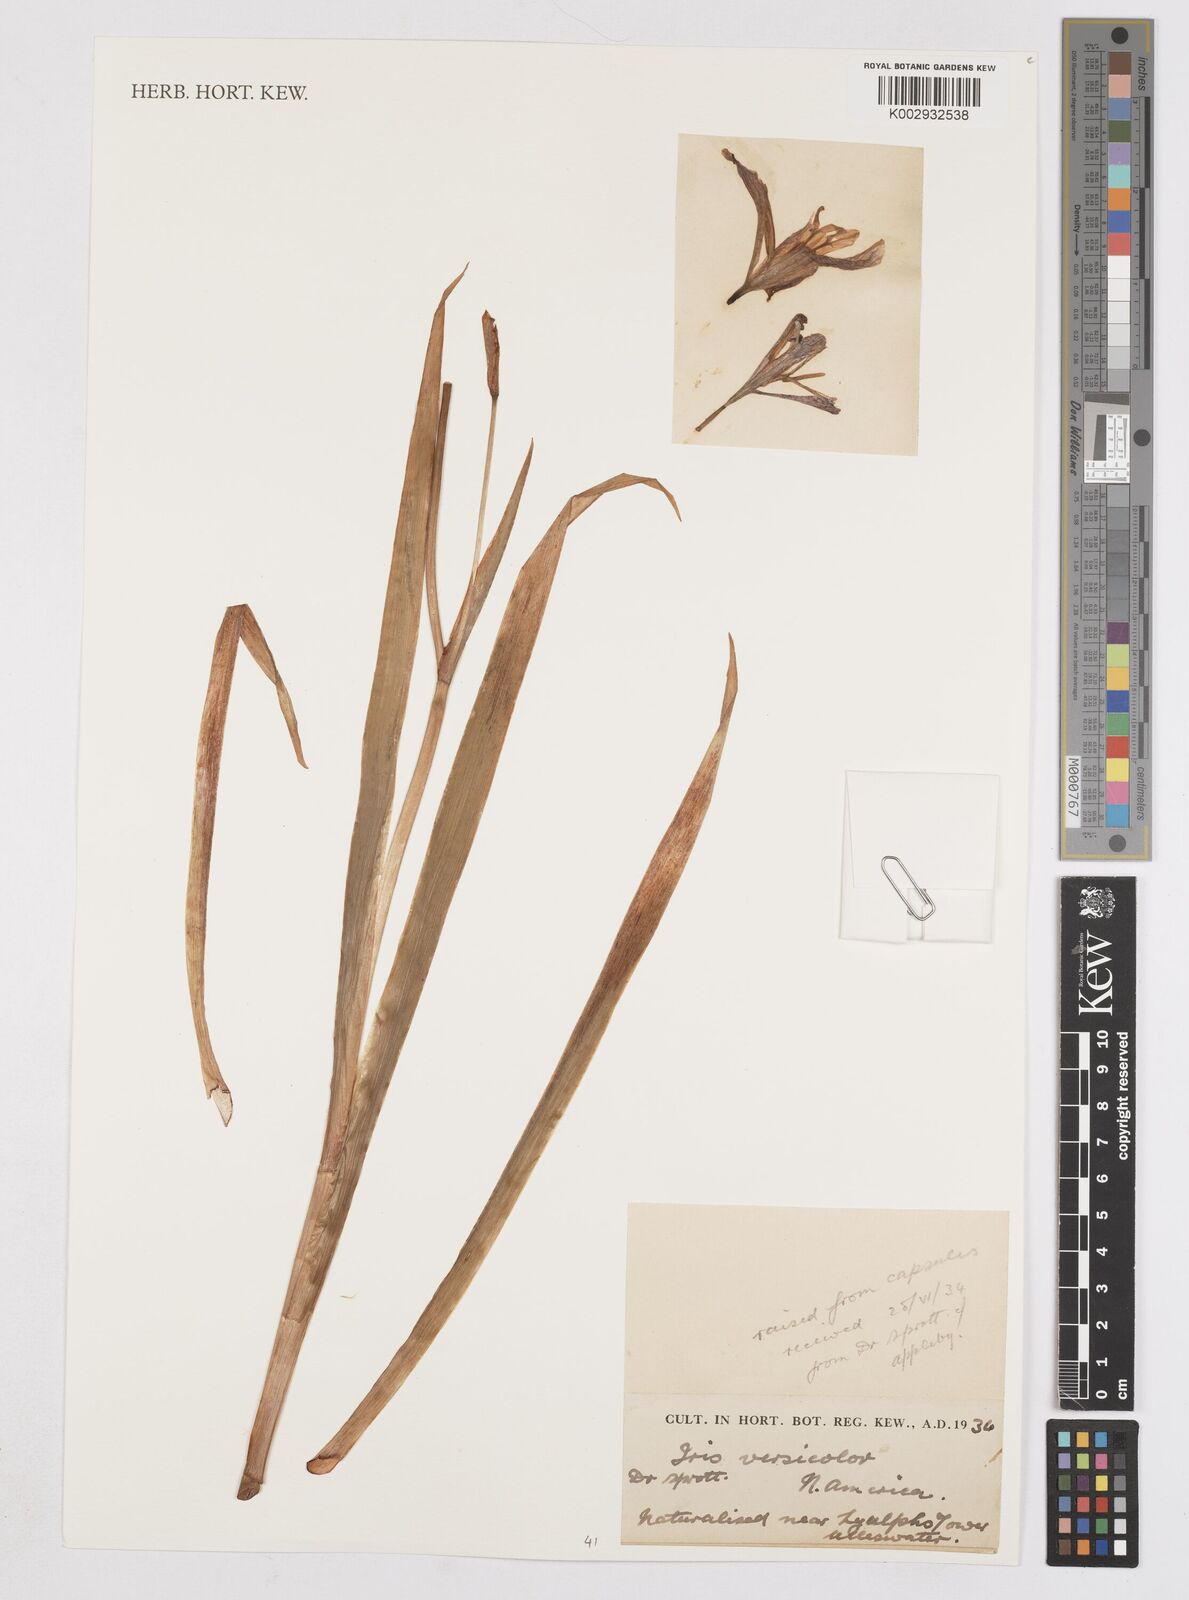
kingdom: Plantae
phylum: Tracheophyta
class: Liliopsida
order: Asparagales
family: Iridaceae
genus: Iris
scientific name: Iris versicolor
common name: Purple iris
